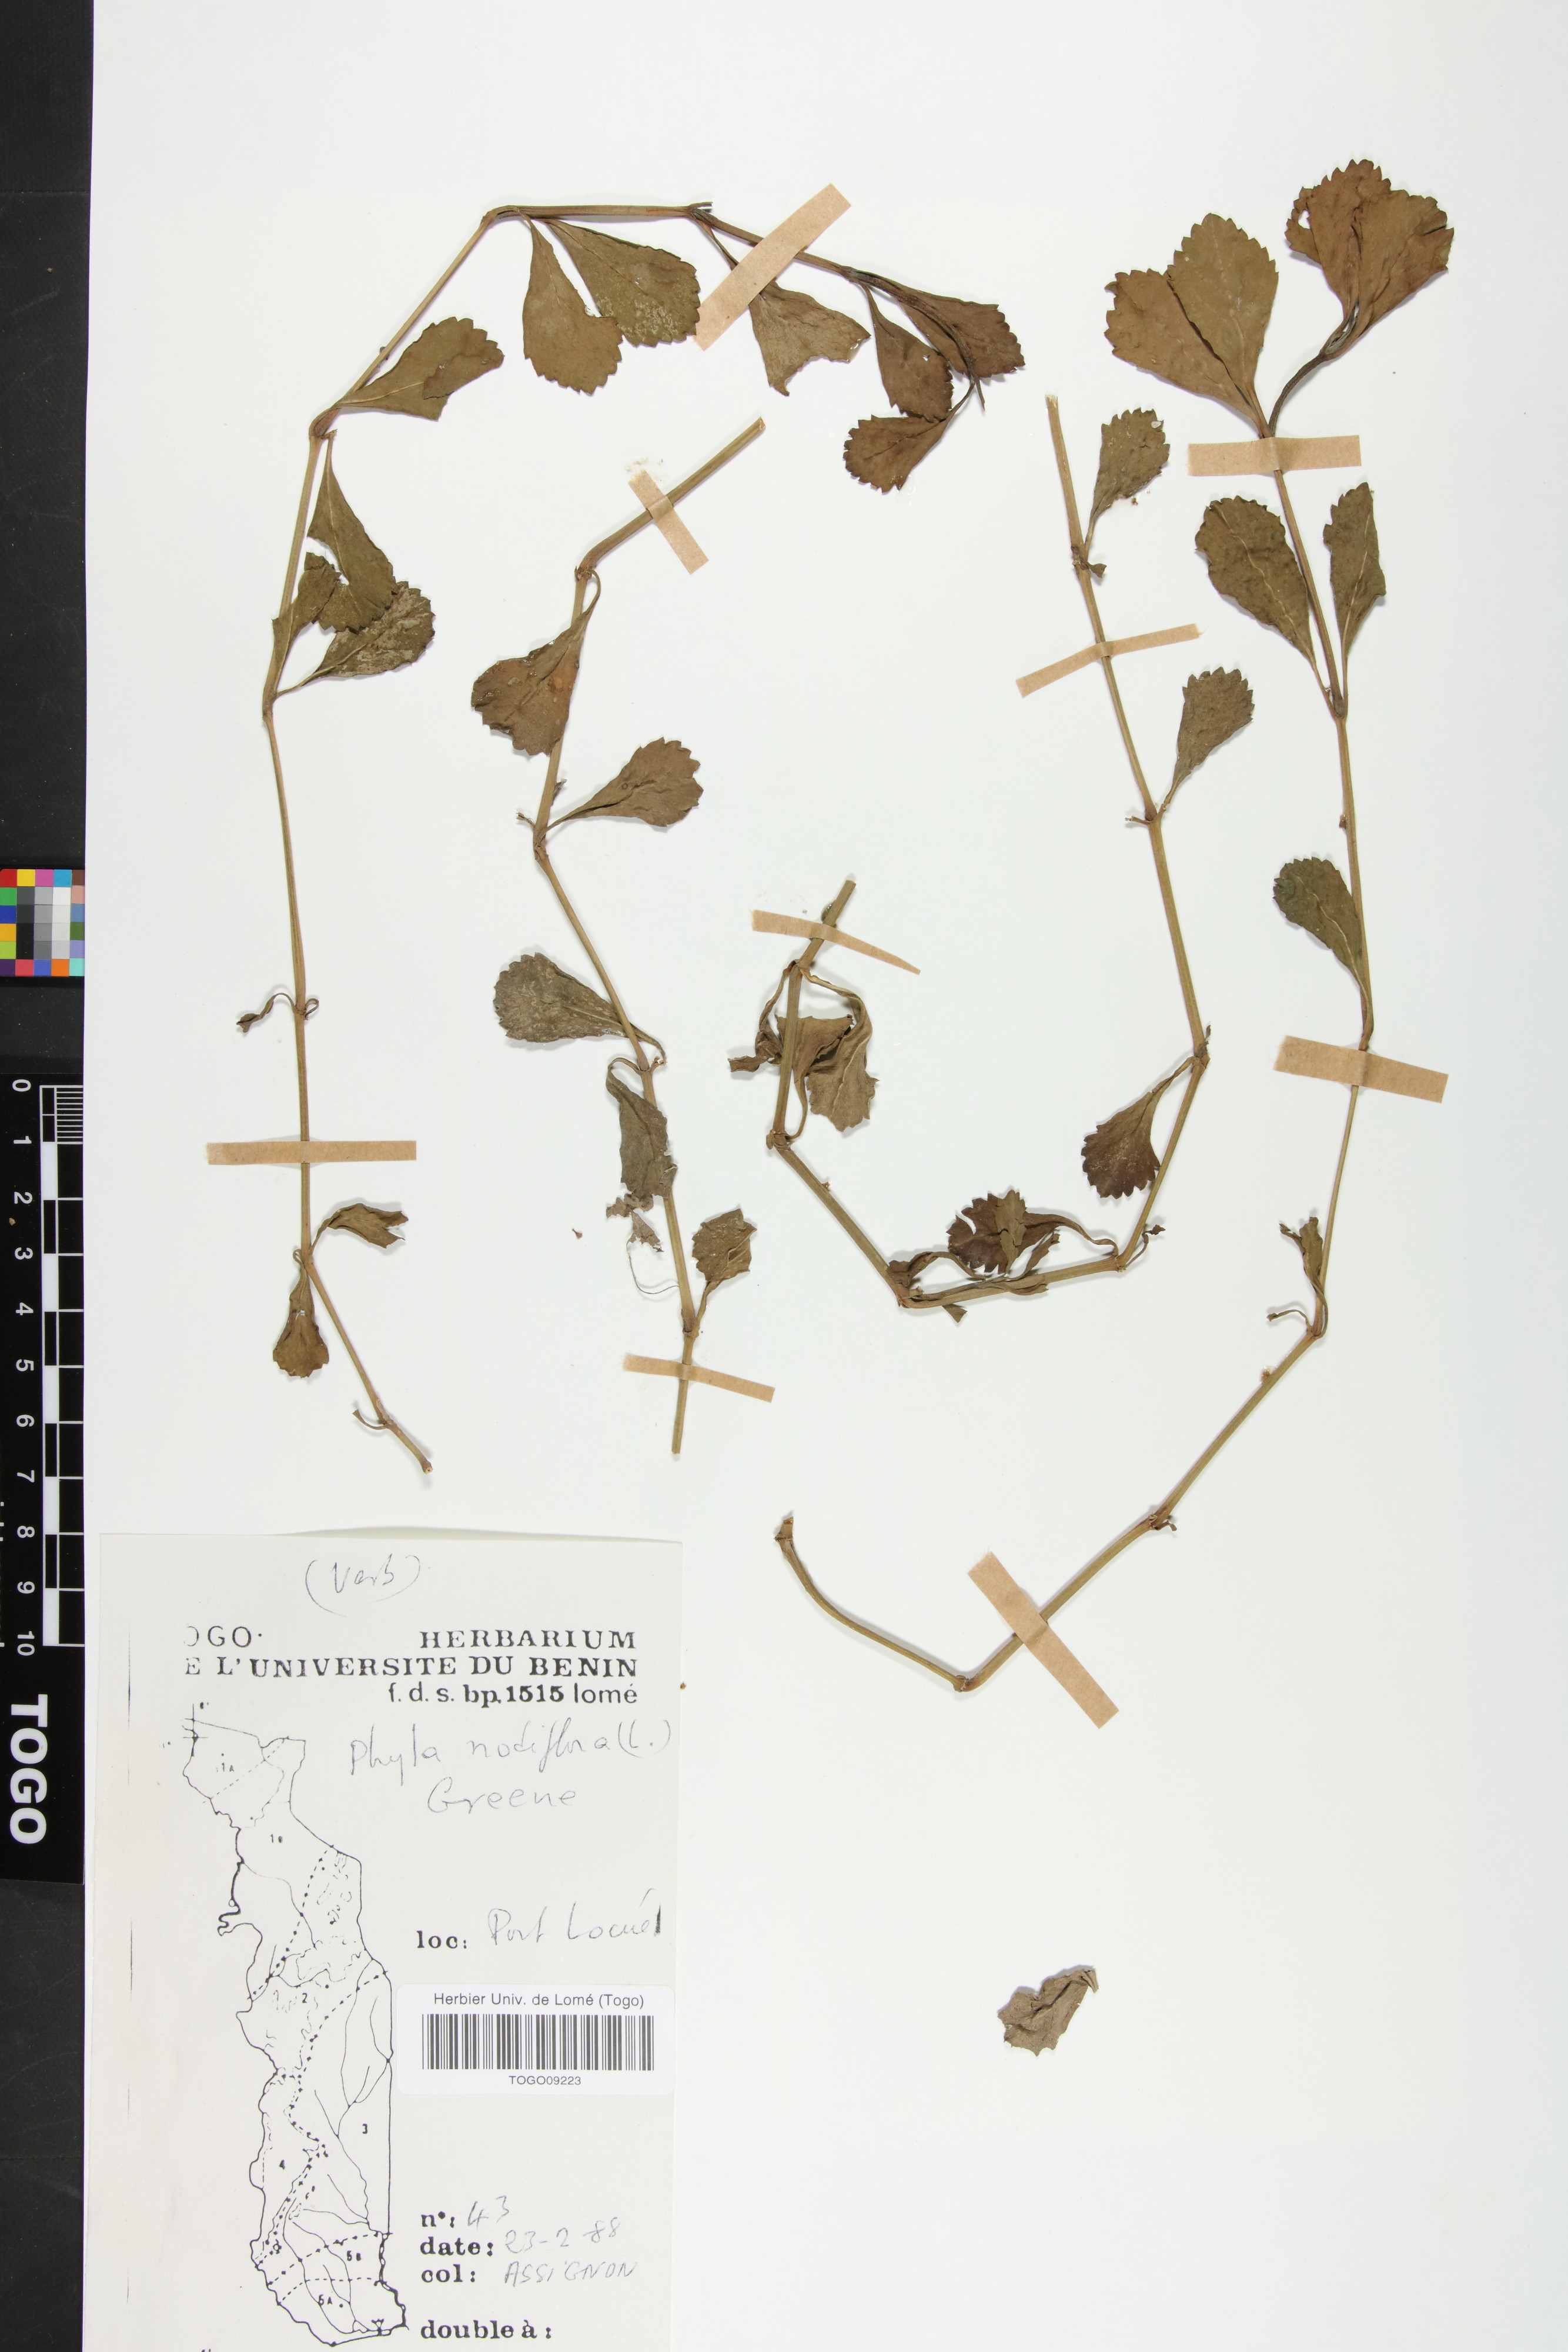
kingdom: Plantae
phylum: Tracheophyta
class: Magnoliopsida
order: Lamiales
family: Verbenaceae
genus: Phyla
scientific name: Phyla nodiflora
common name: Frogfruit
